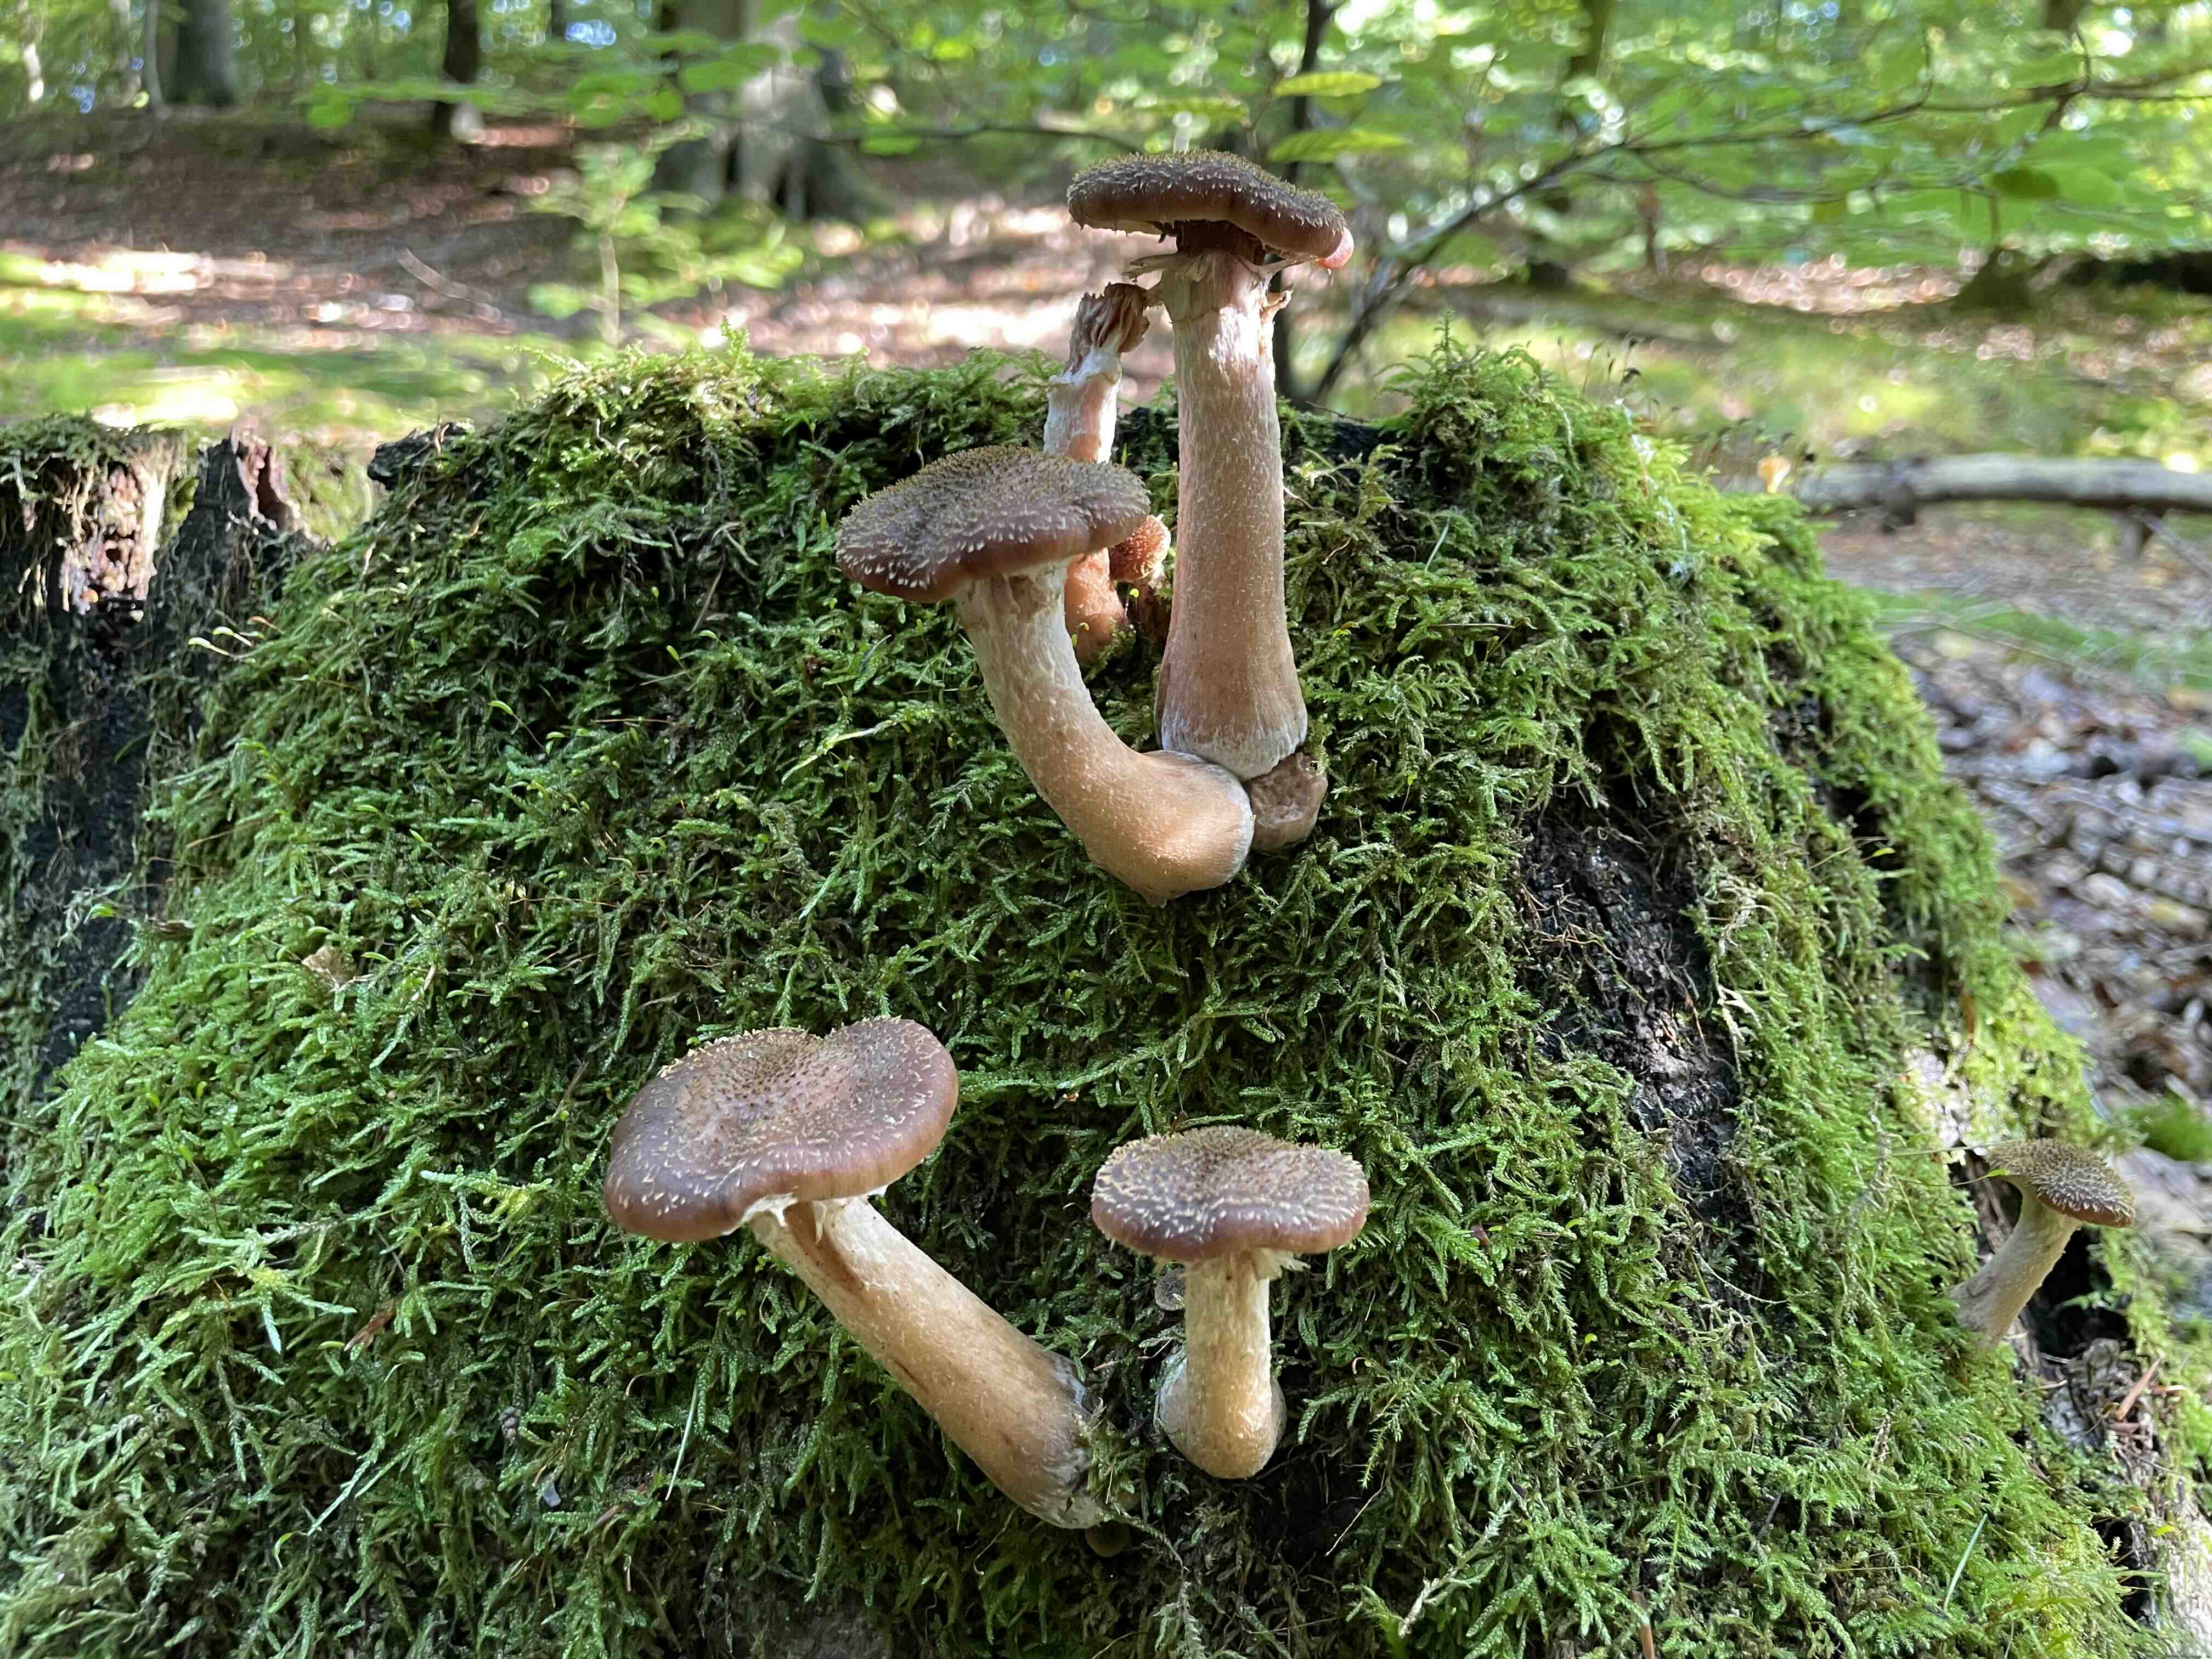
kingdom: Fungi
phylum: Basidiomycota
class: Agaricomycetes
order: Agaricales
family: Physalacriaceae
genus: Armillaria
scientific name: Armillaria lutea
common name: køllestokket honningsvamp
